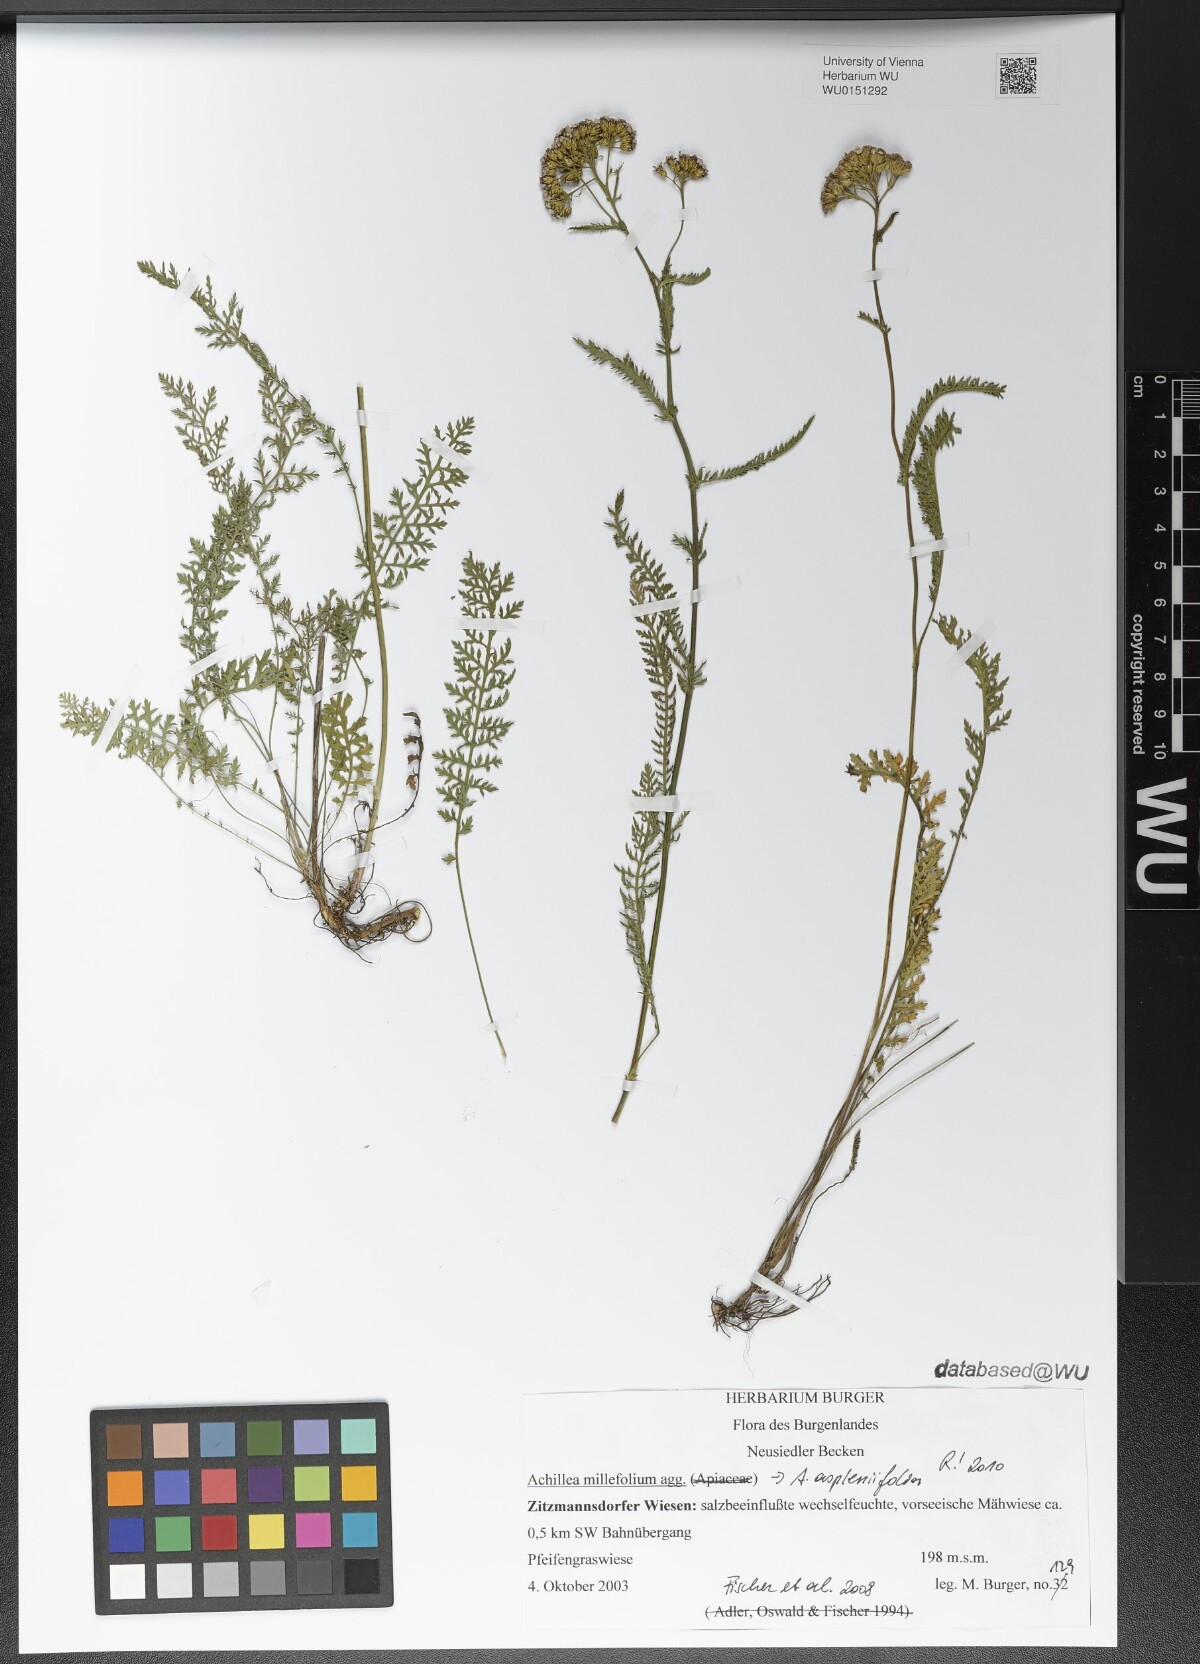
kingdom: Plantae
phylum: Tracheophyta
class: Magnoliopsida
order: Asterales
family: Asteraceae
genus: Achillea
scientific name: Achillea aspleniifolia
